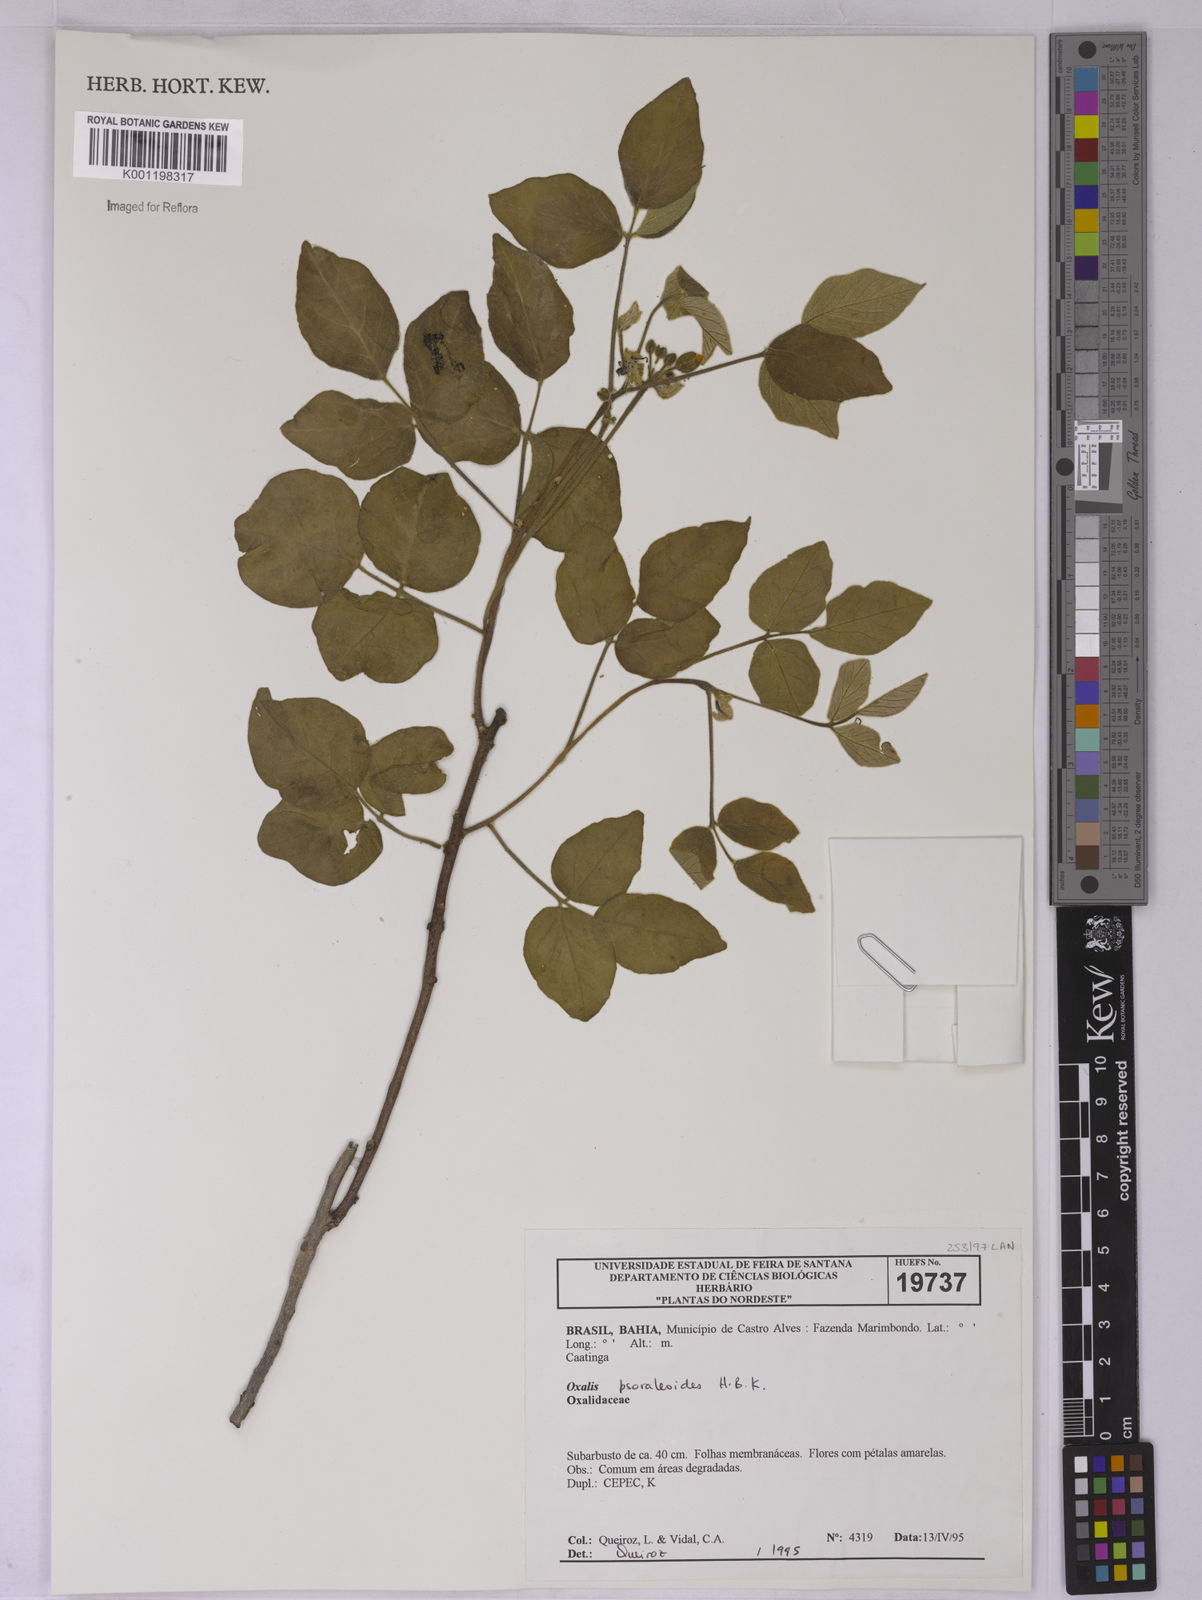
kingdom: Plantae
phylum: Tracheophyta
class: Magnoliopsida
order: Oxalidales
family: Oxalidaceae
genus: Oxalis
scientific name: Oxalis psoraleoides
